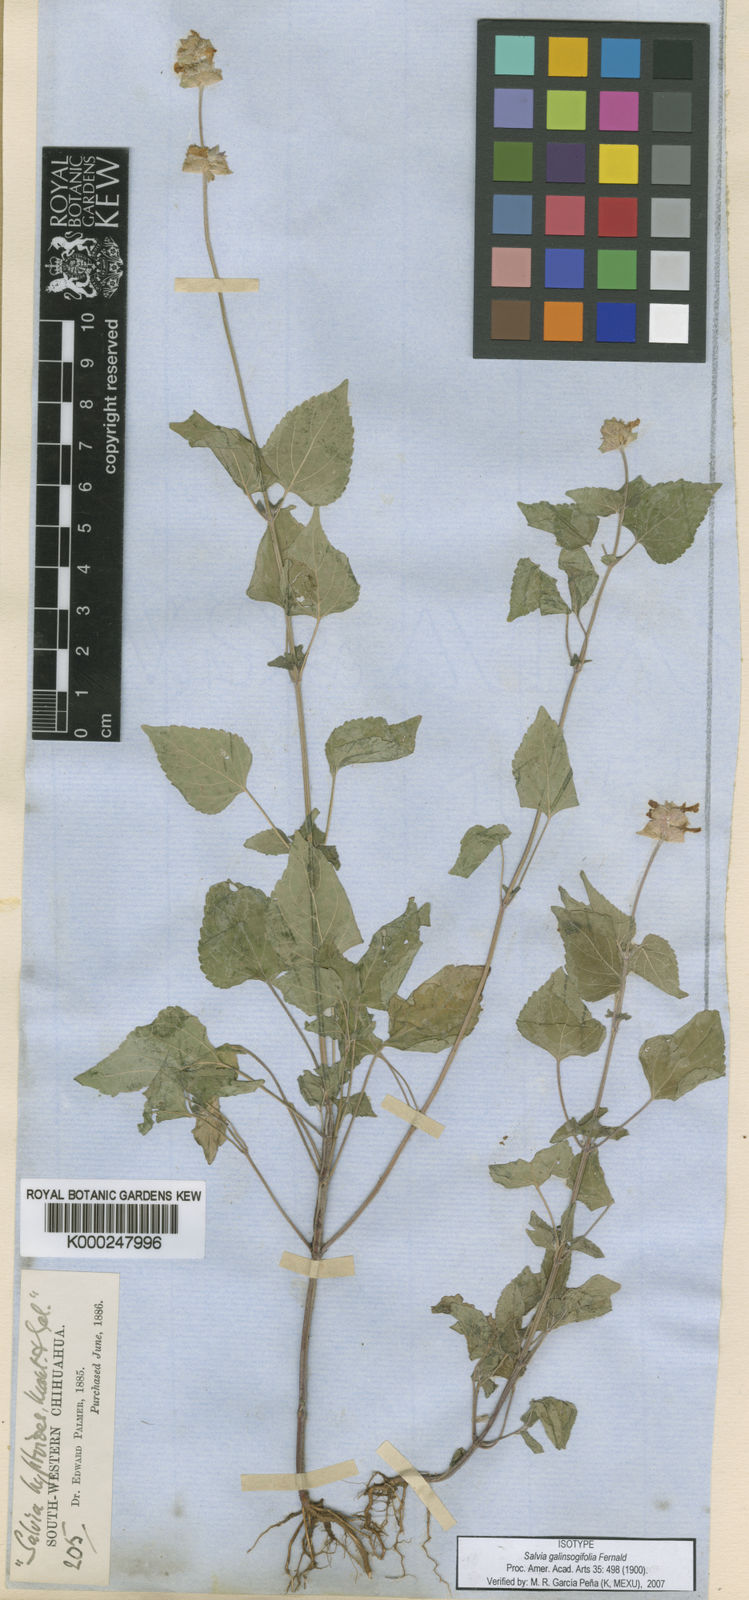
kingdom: Plantae
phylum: Tracheophyta
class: Magnoliopsida
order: Lamiales
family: Lamiaceae
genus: Salvia
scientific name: Salvia lasiocephala
